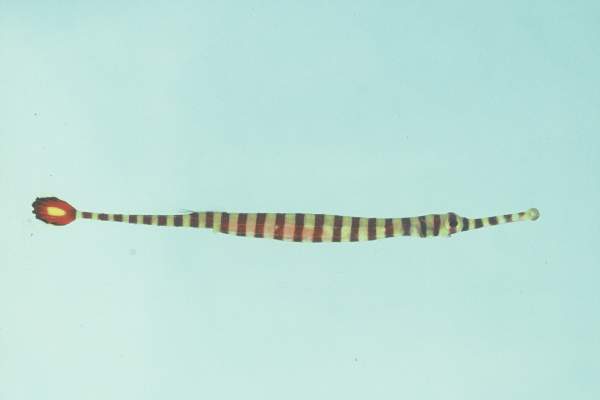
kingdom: Animalia
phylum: Chordata
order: Syngnathiformes
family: Syngnathidae
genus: Dunckerocampus
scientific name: Dunckerocampus chapmani
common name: Glowtail pipefish
